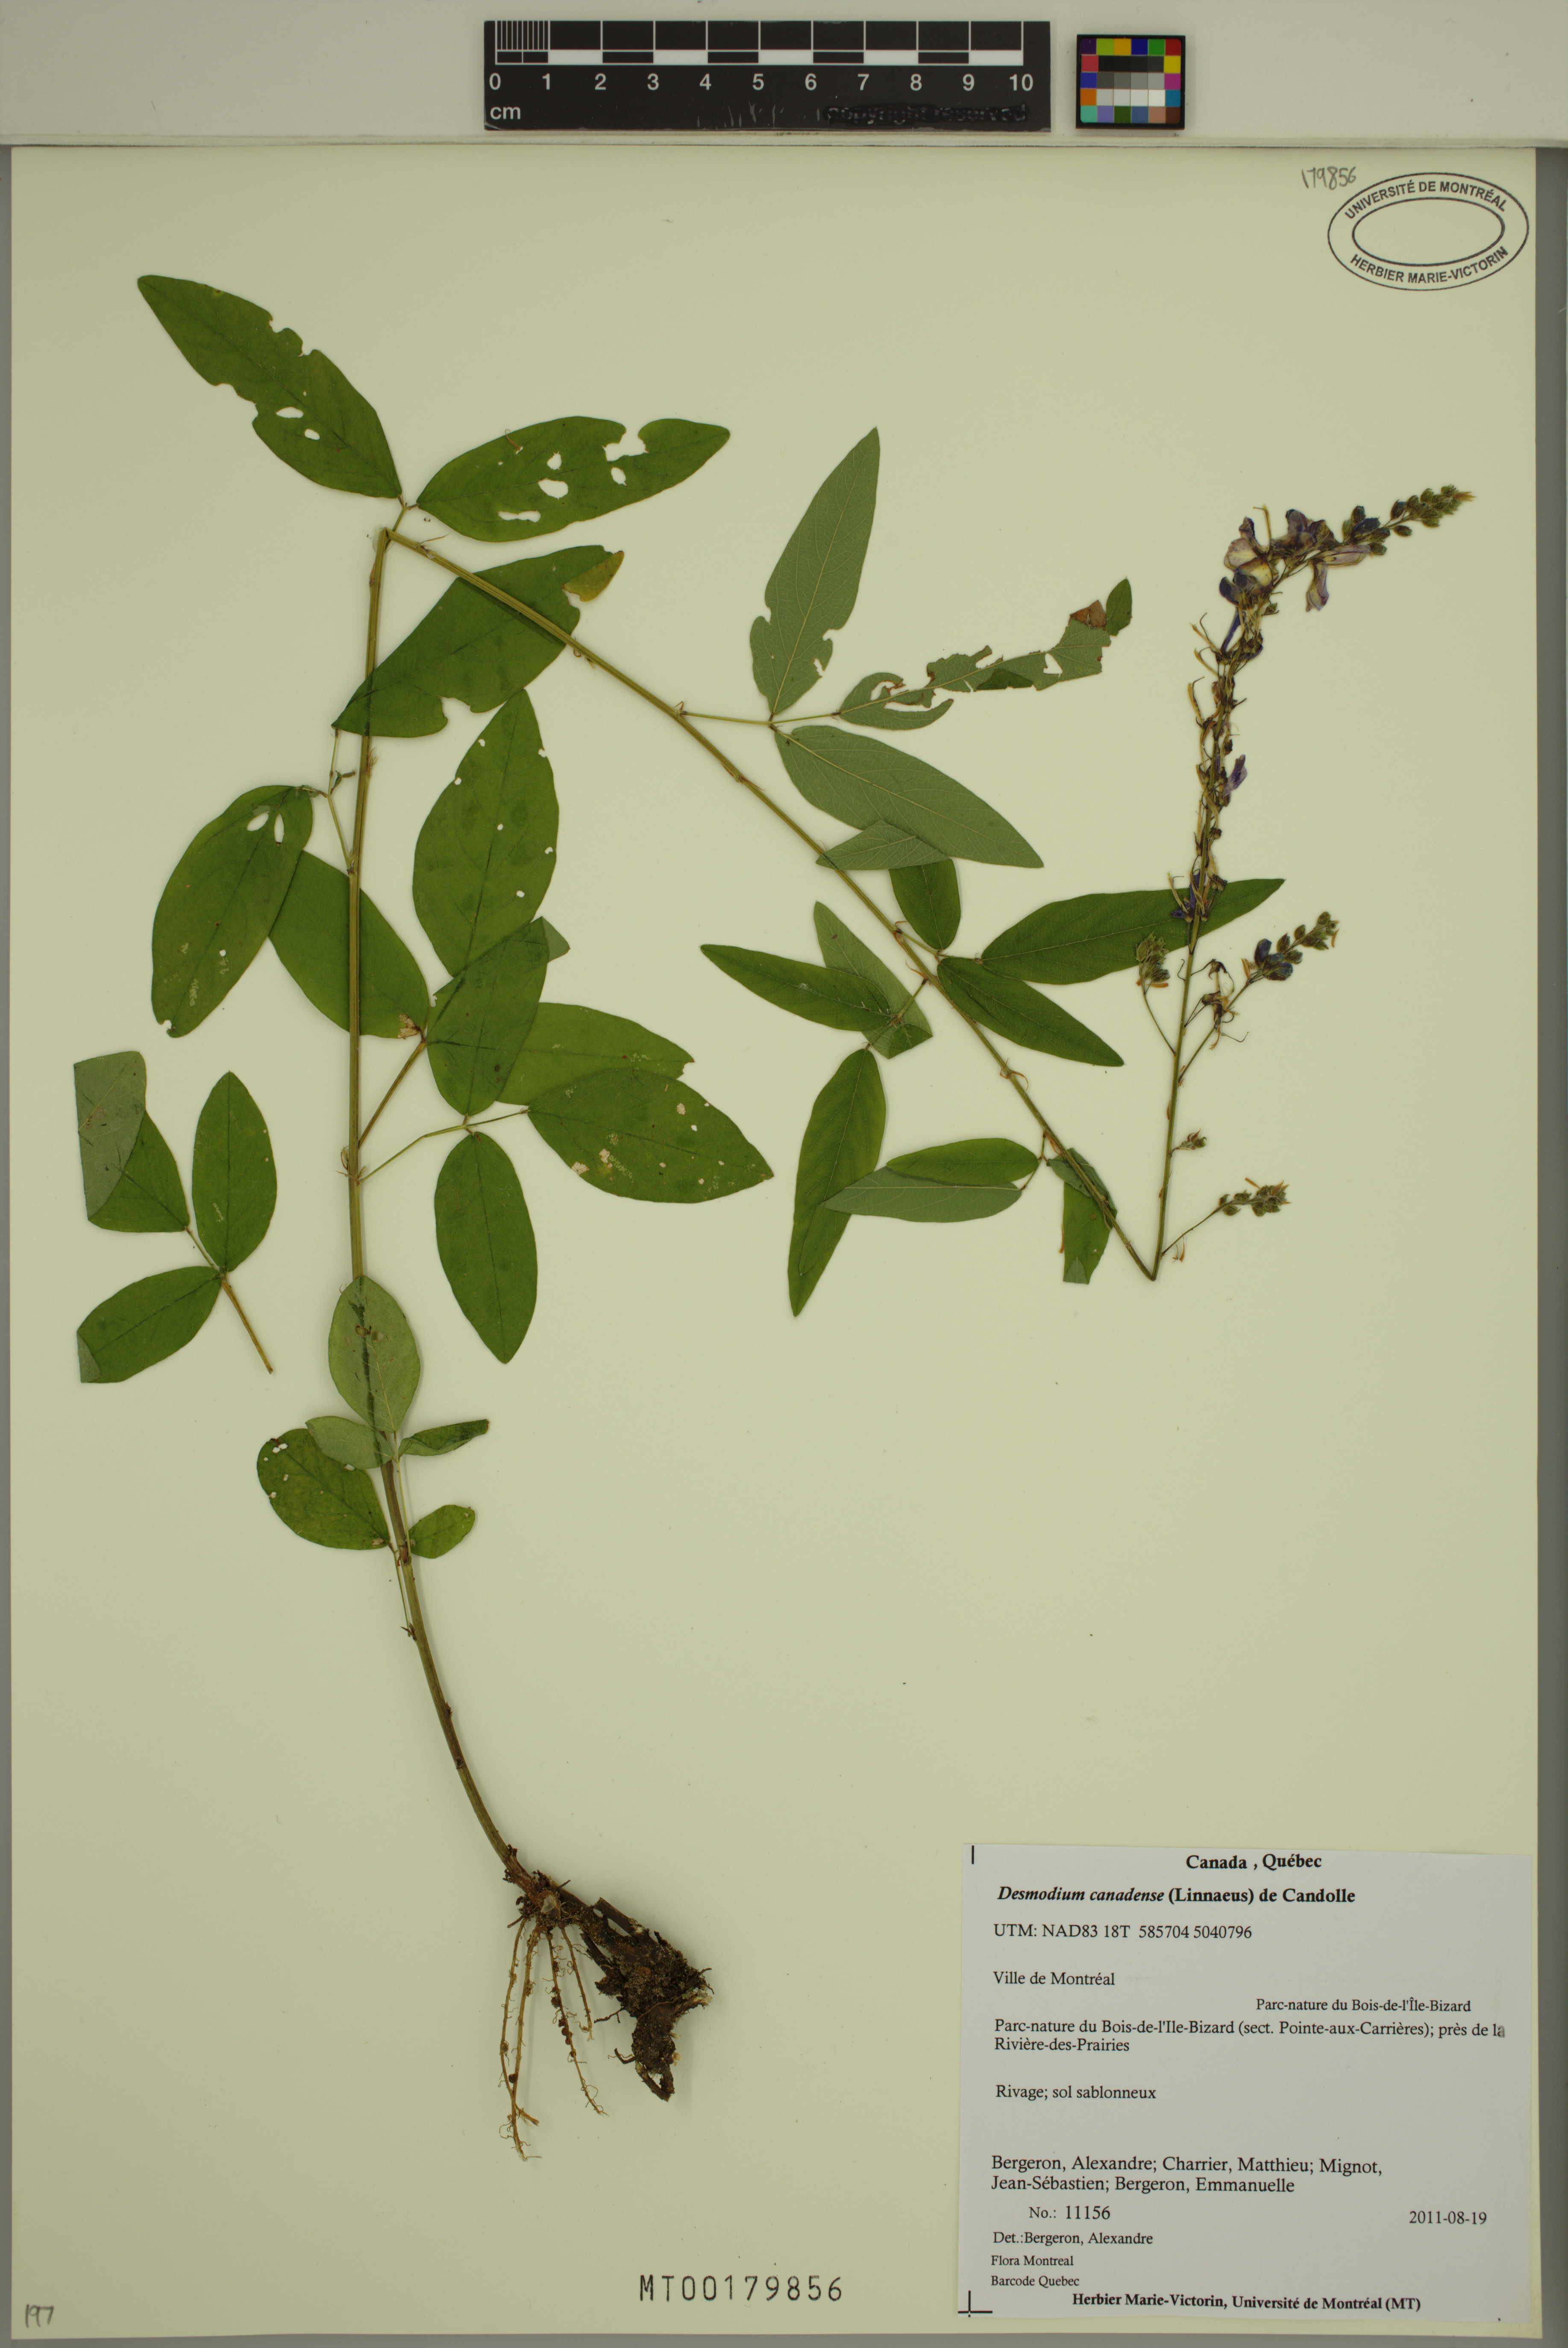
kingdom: Plantae
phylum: Tracheophyta
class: Magnoliopsida
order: Fabales
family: Fabaceae
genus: Desmodium
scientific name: Desmodium canadense
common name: Canada tick-trefoil
